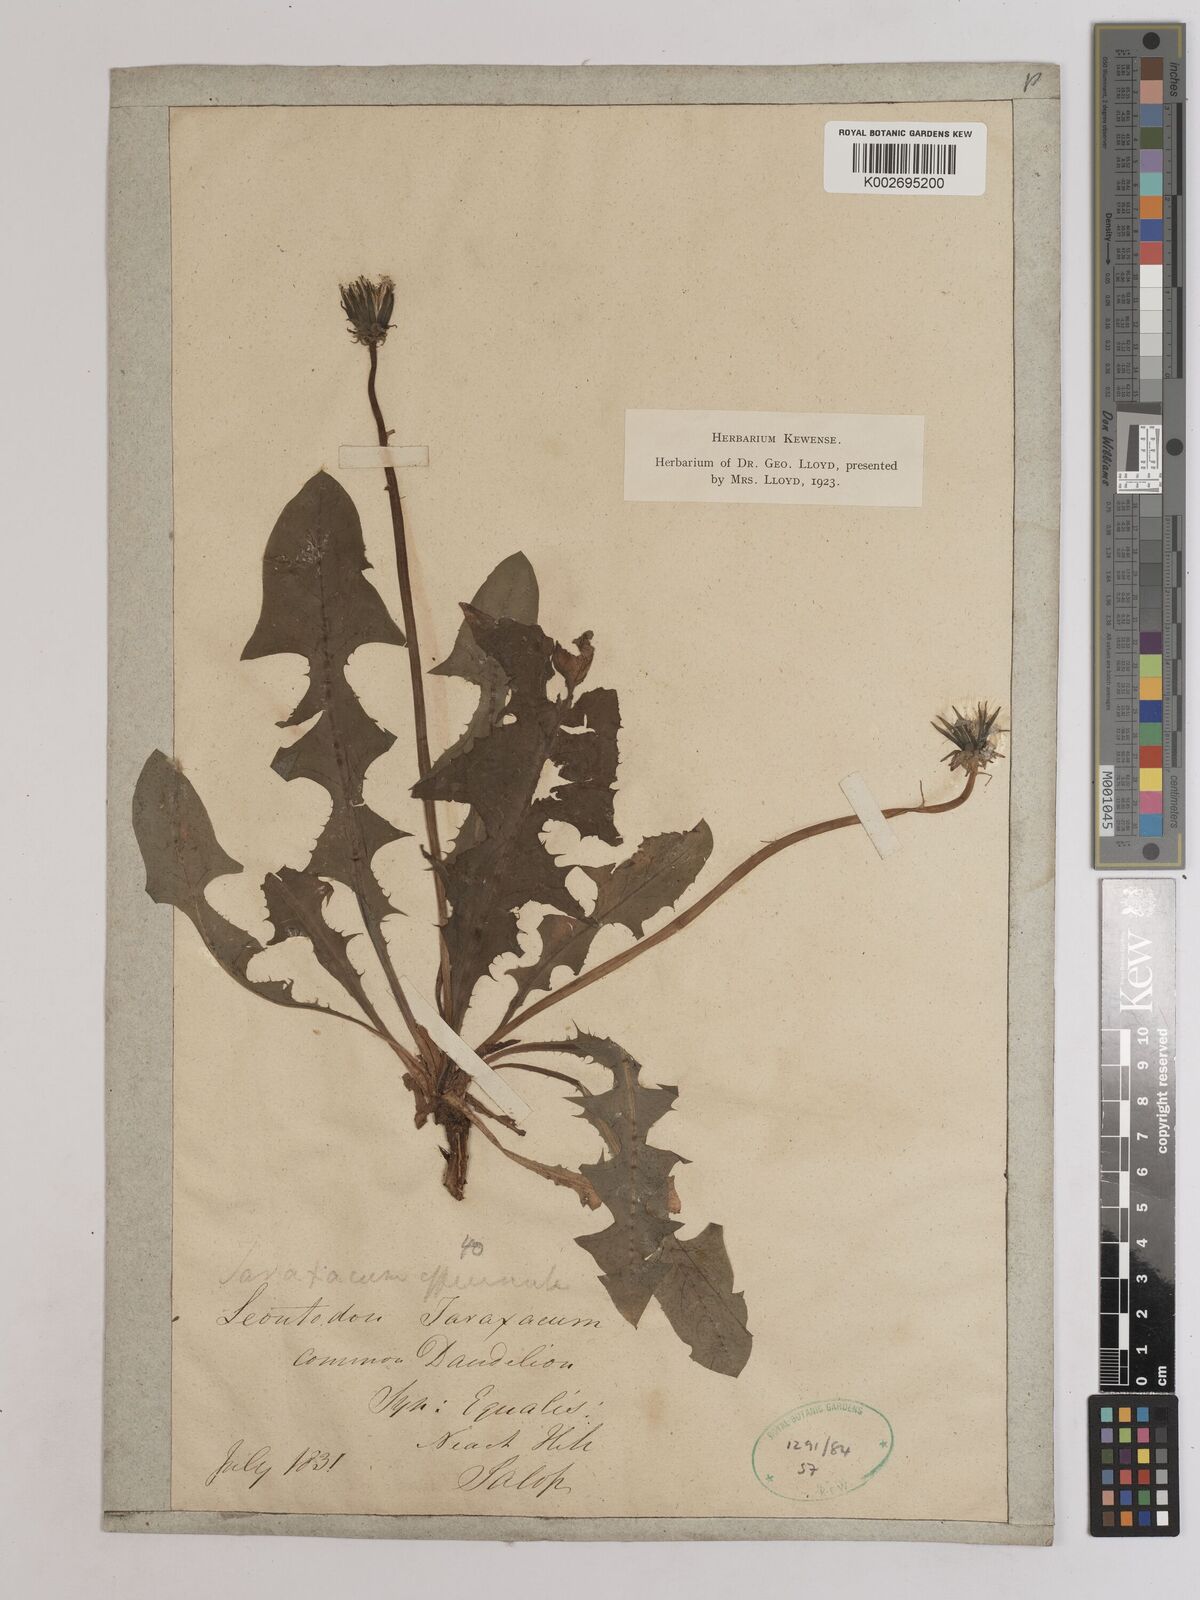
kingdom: Plantae
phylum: Tracheophyta
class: Magnoliopsida
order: Asterales
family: Asteraceae
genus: Taraxacum
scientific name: Taraxacum officinale
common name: Common dandelion
